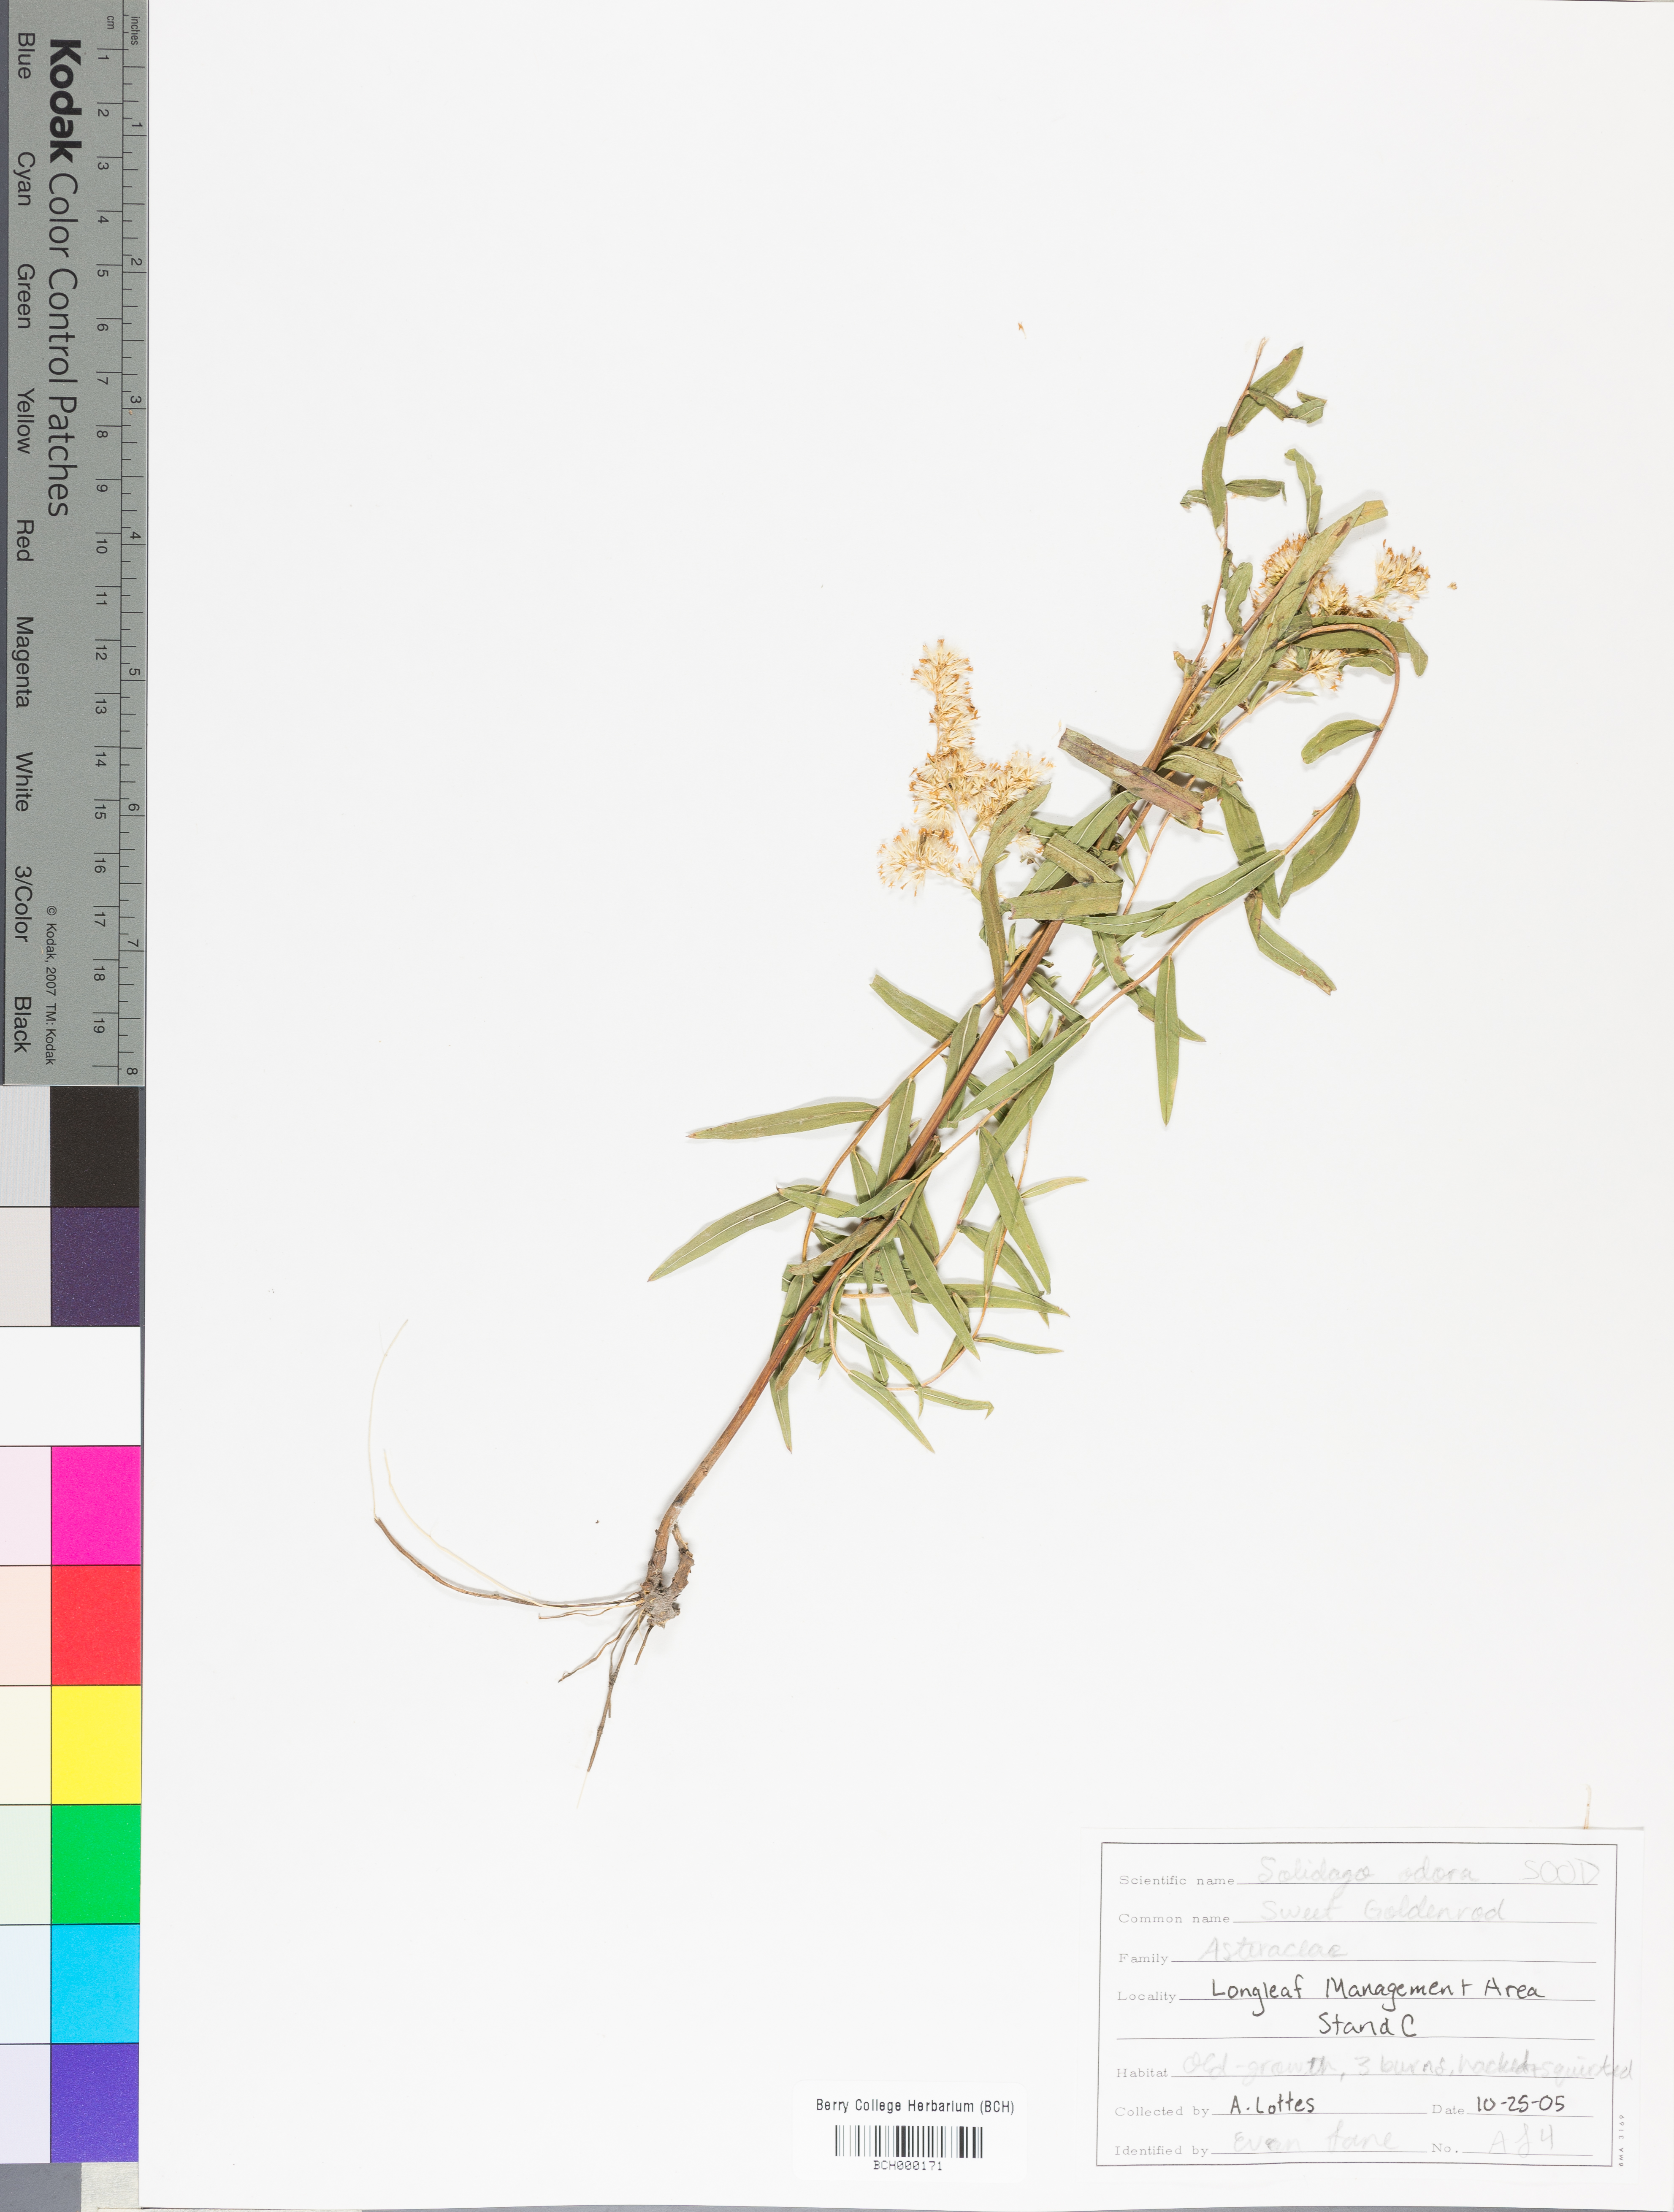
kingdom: Plantae
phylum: Tracheophyta
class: Magnoliopsida
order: Asterales
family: Asteraceae
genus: Solidago
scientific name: Solidago odora
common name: Anise-scented goldenrod
